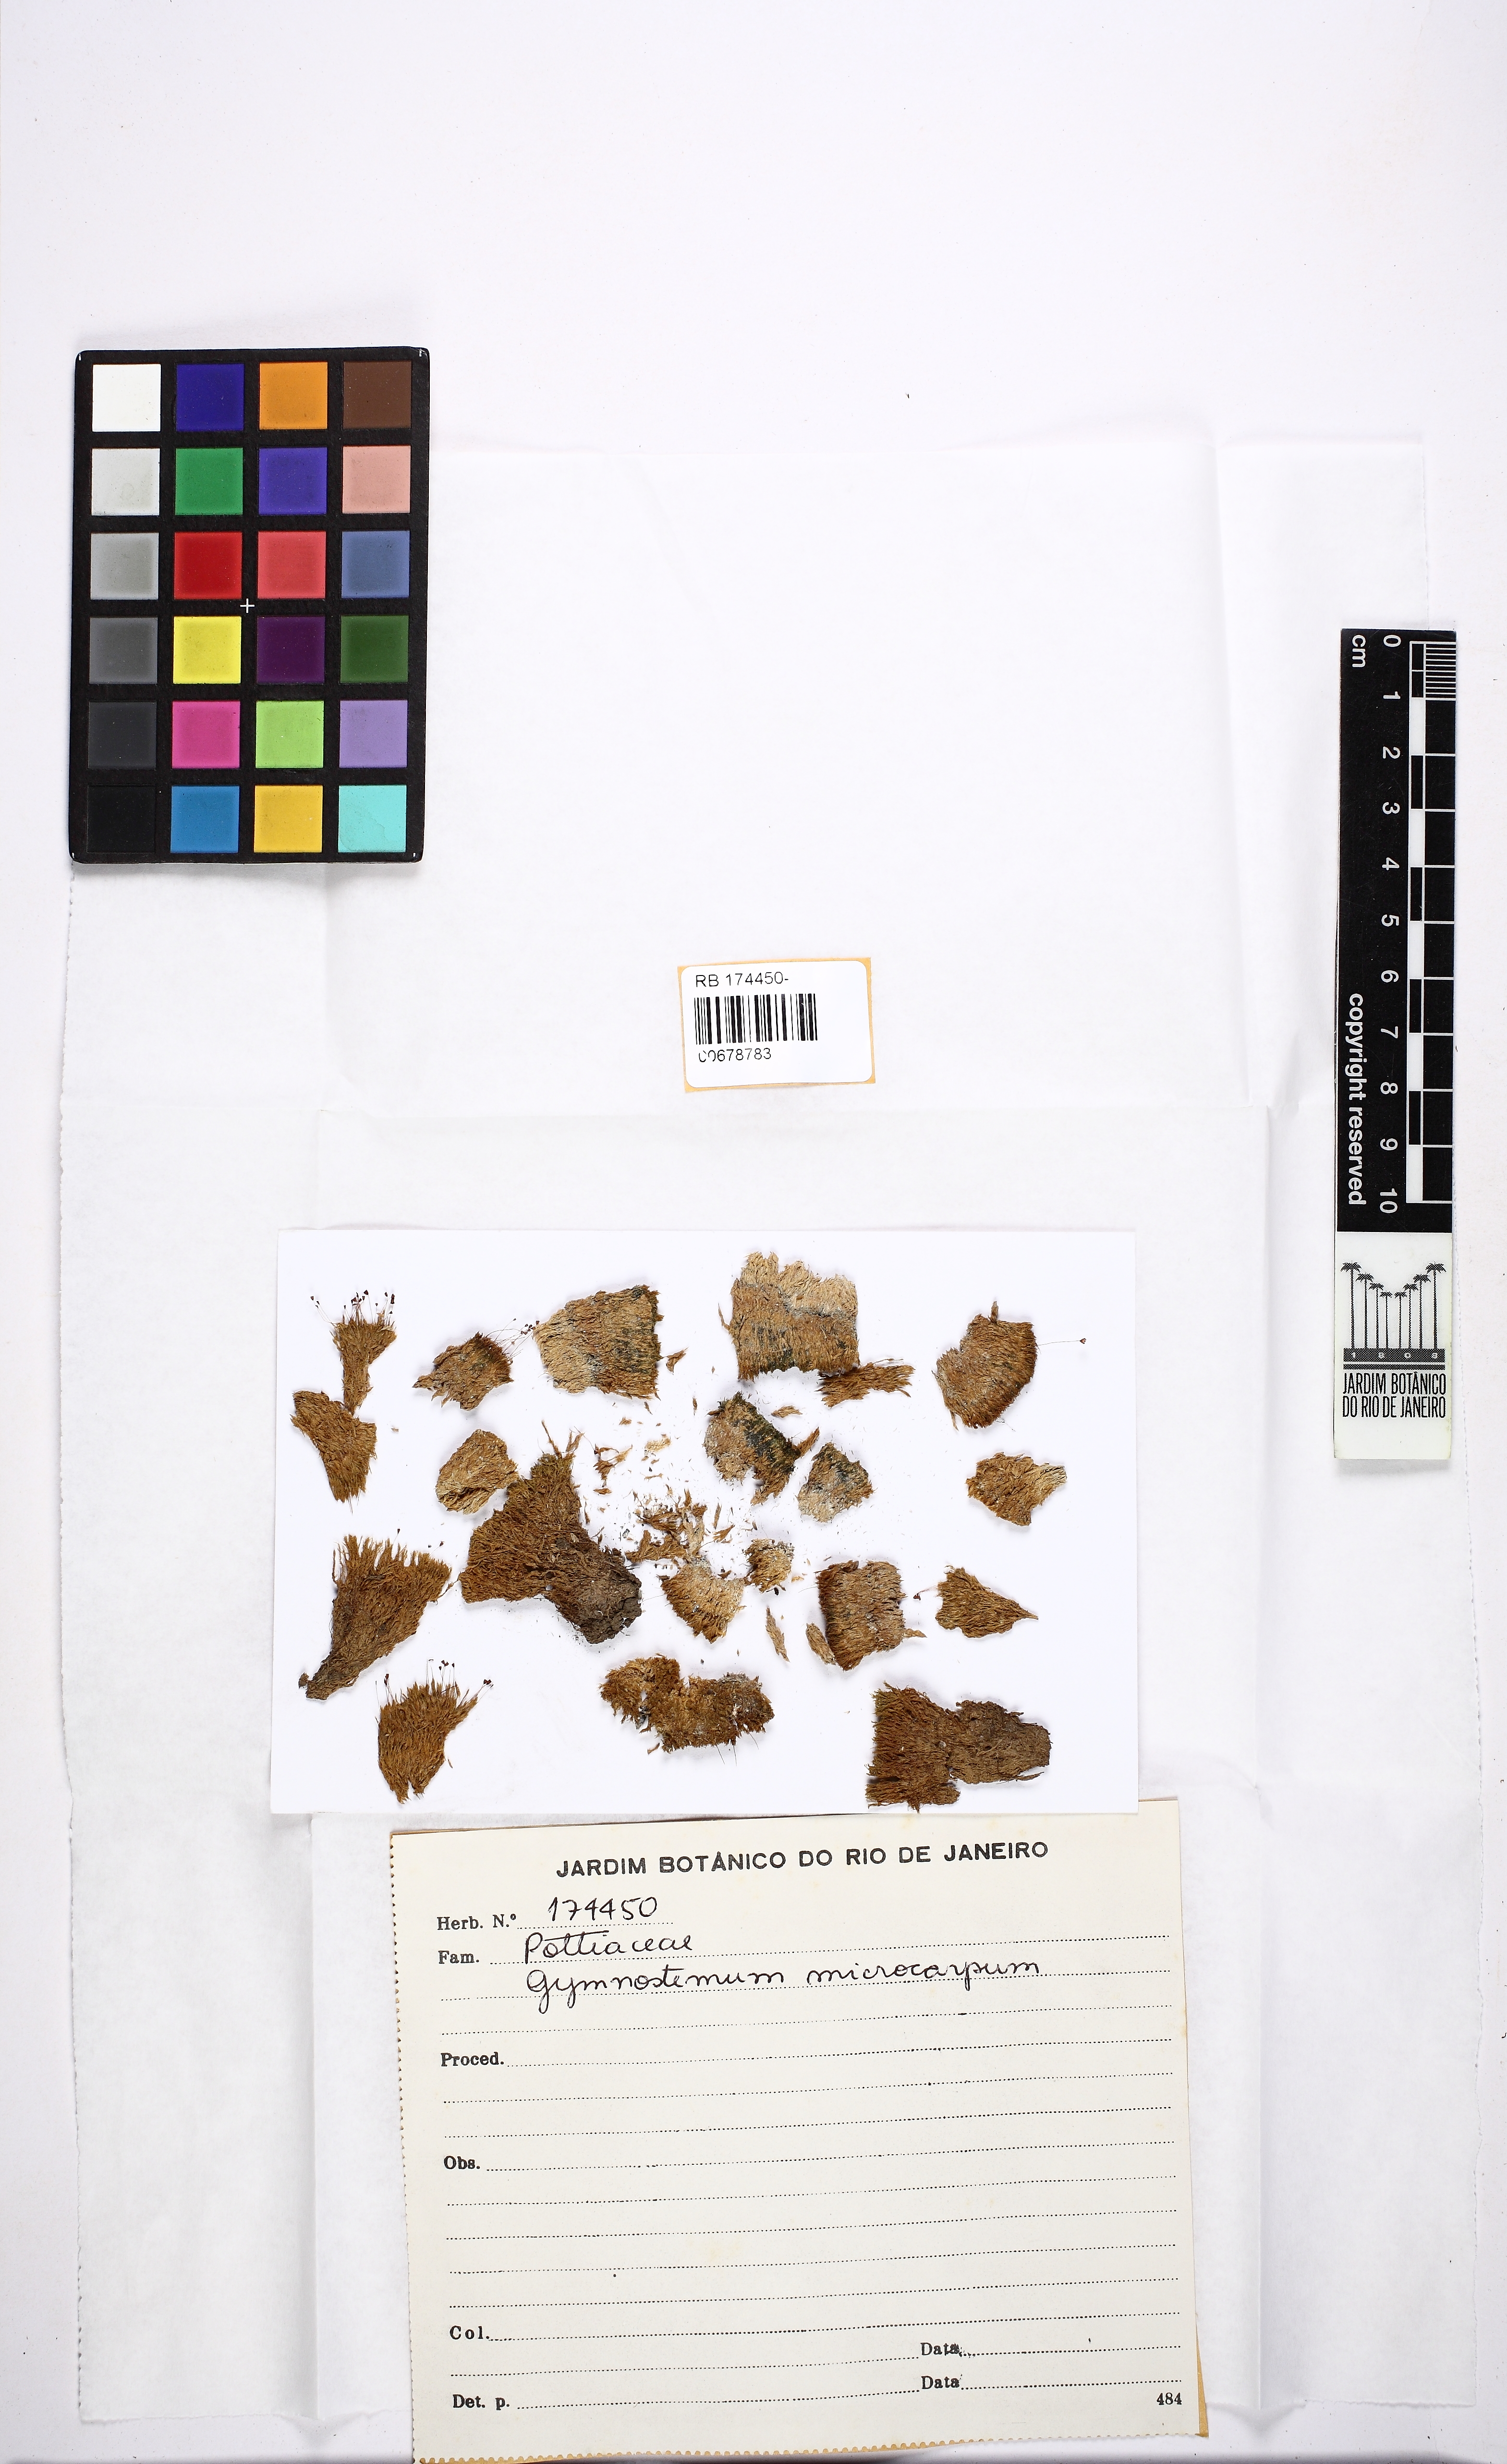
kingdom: Plantae
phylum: Bryophyta
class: Bryopsida
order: Pottiales
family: Pottiaceae
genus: Hymenostylium
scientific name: Hymenostylium recurvirostrum
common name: Hook-beak tufa-moss
